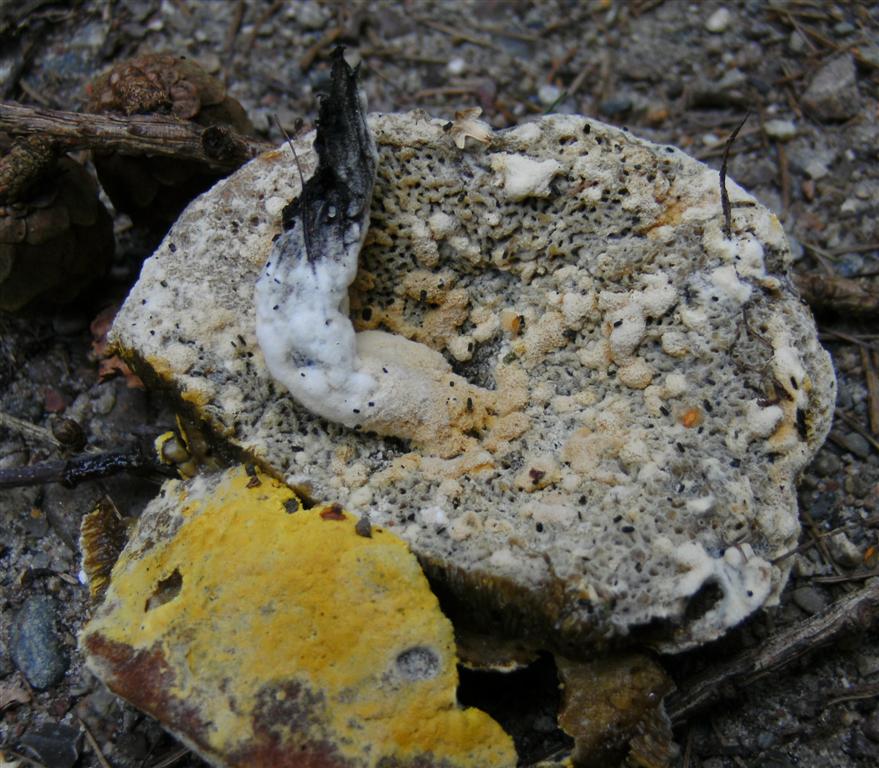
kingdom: Fungi
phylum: Ascomycota
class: Sordariomycetes
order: Hypocreales
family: Hypocreaceae
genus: Hypomyces
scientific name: Hypomyces microspermus
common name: dværgrørhat-snylteskorpe
